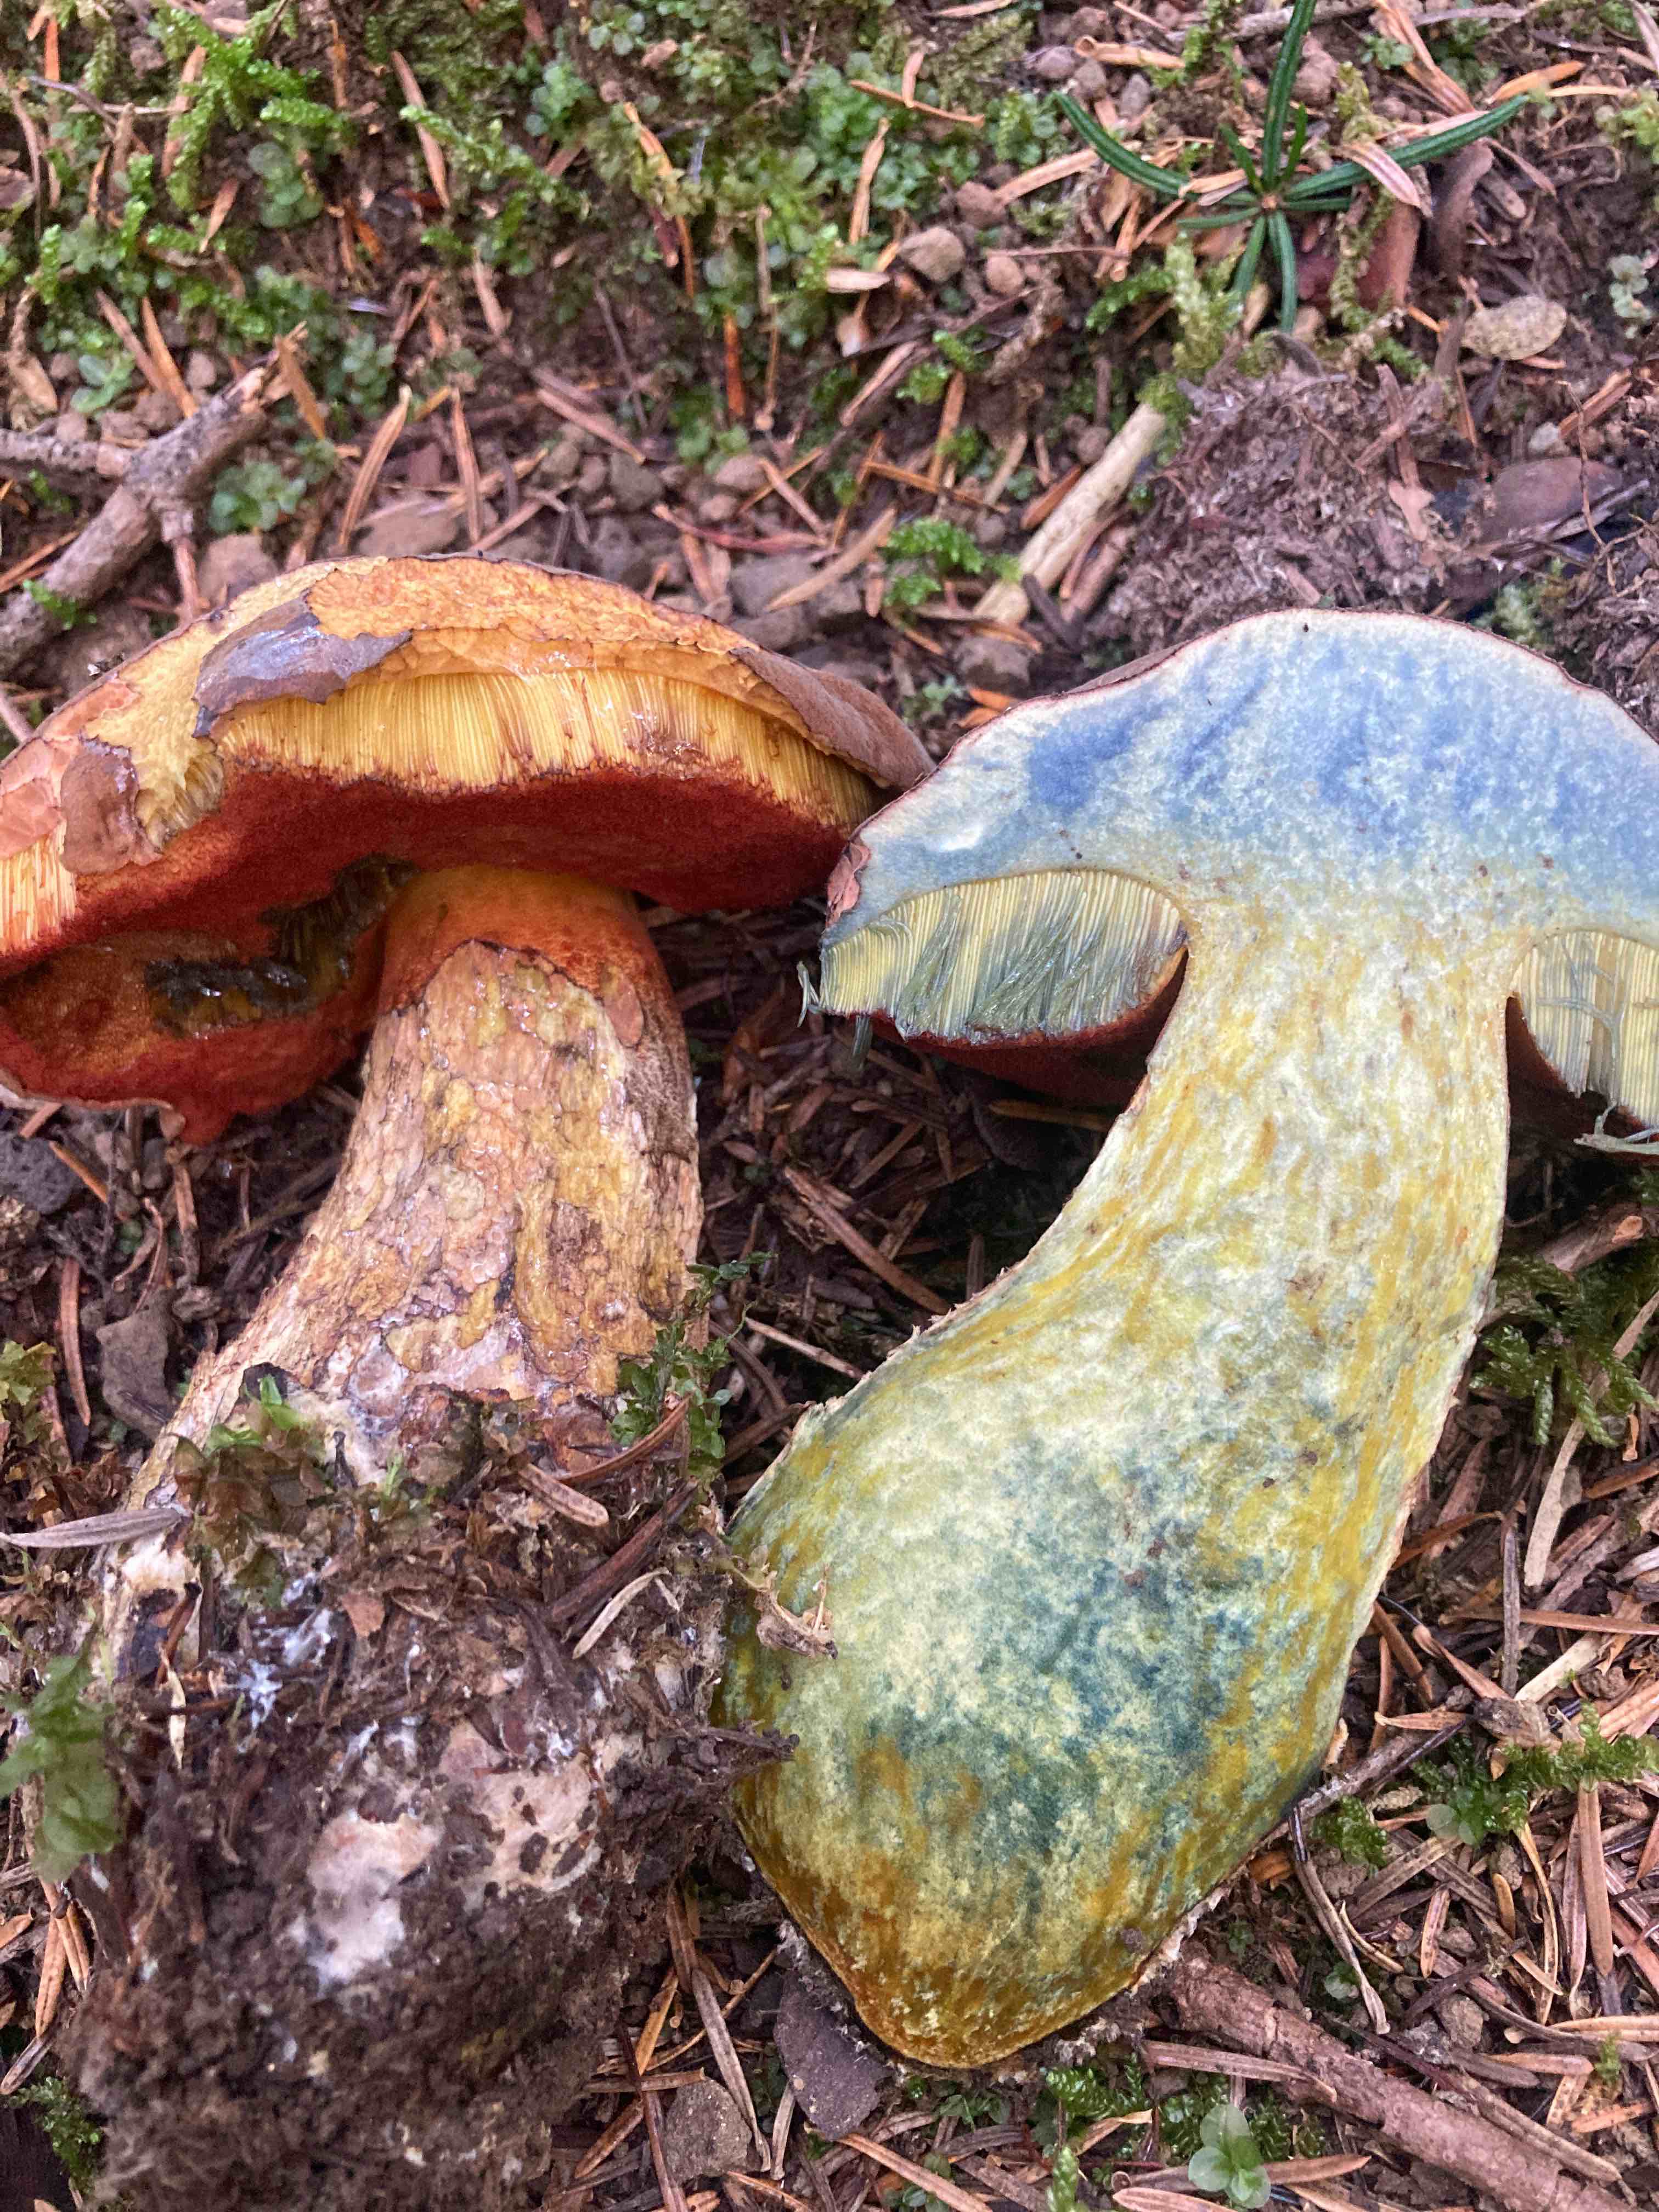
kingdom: Fungi
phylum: Basidiomycota
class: Agaricomycetes
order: Boletales
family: Boletaceae
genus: Neoboletus
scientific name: Neoboletus erythropus
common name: punktstokket indigorørhat
